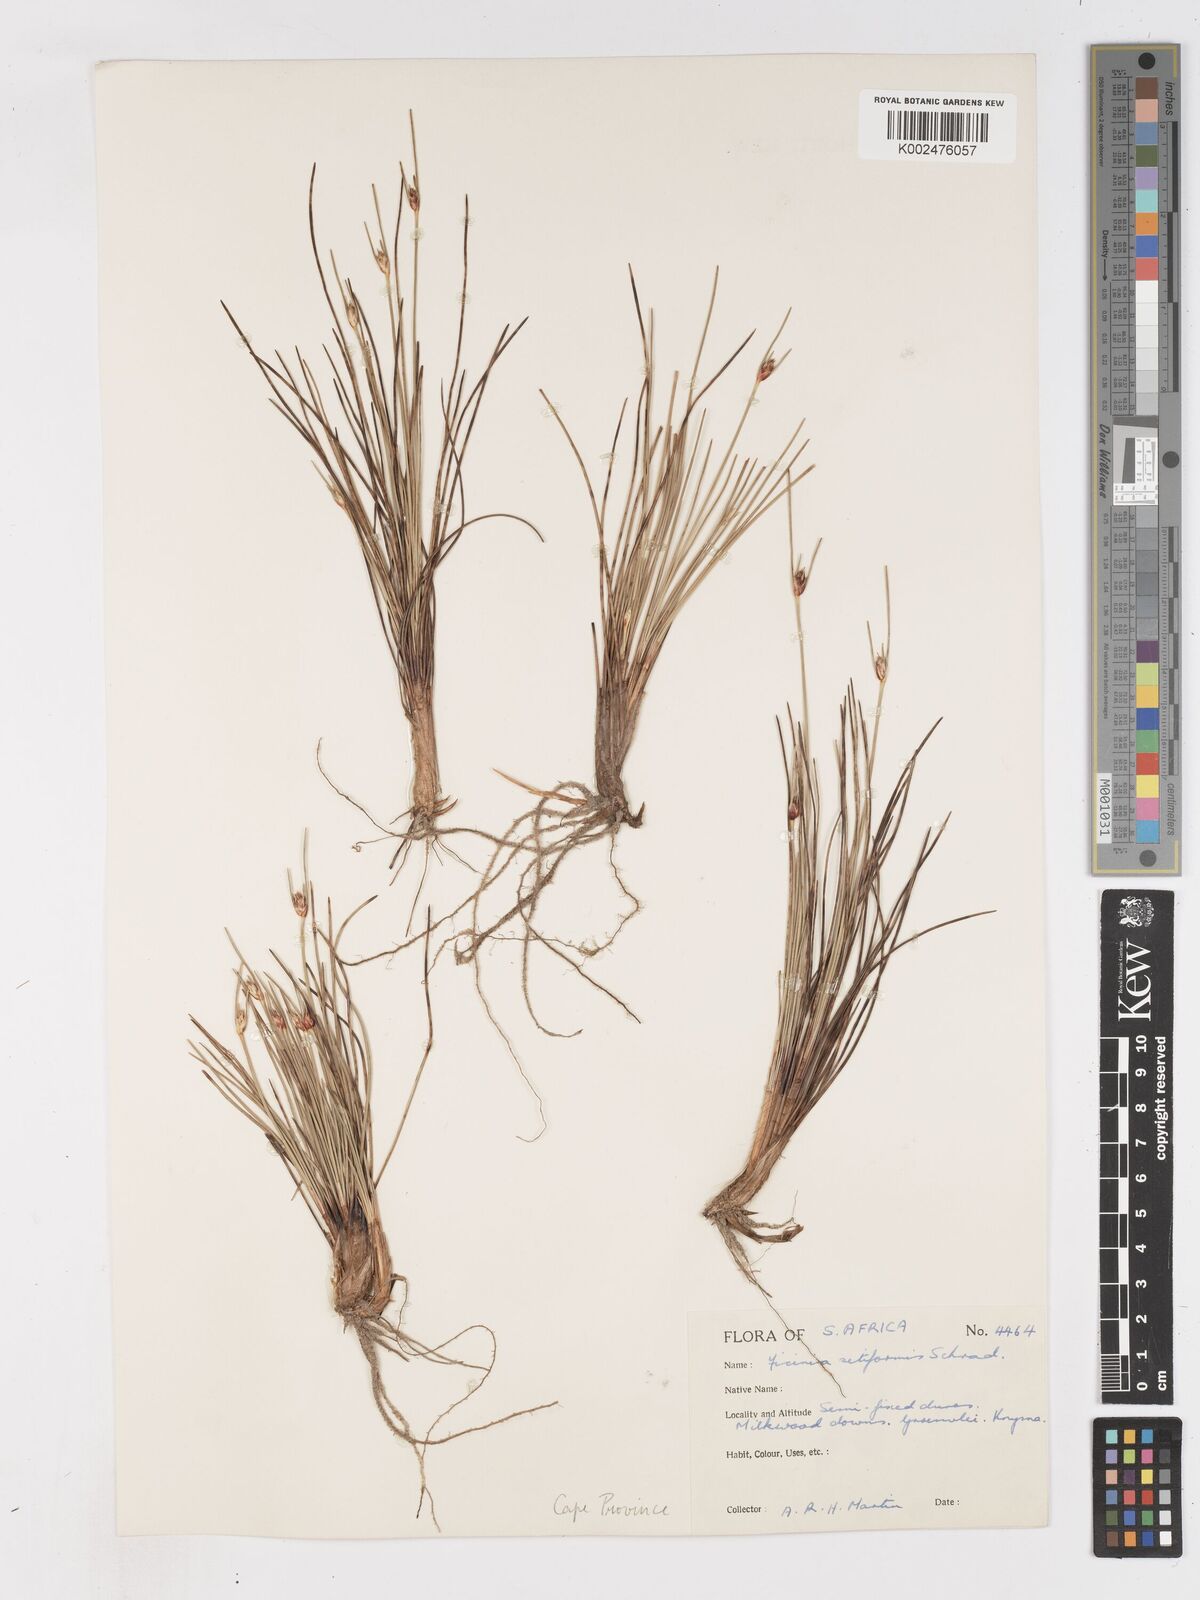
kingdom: Plantae
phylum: Tracheophyta
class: Liliopsida
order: Poales
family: Cyperaceae
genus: Ficinia
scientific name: Ficinia indica
